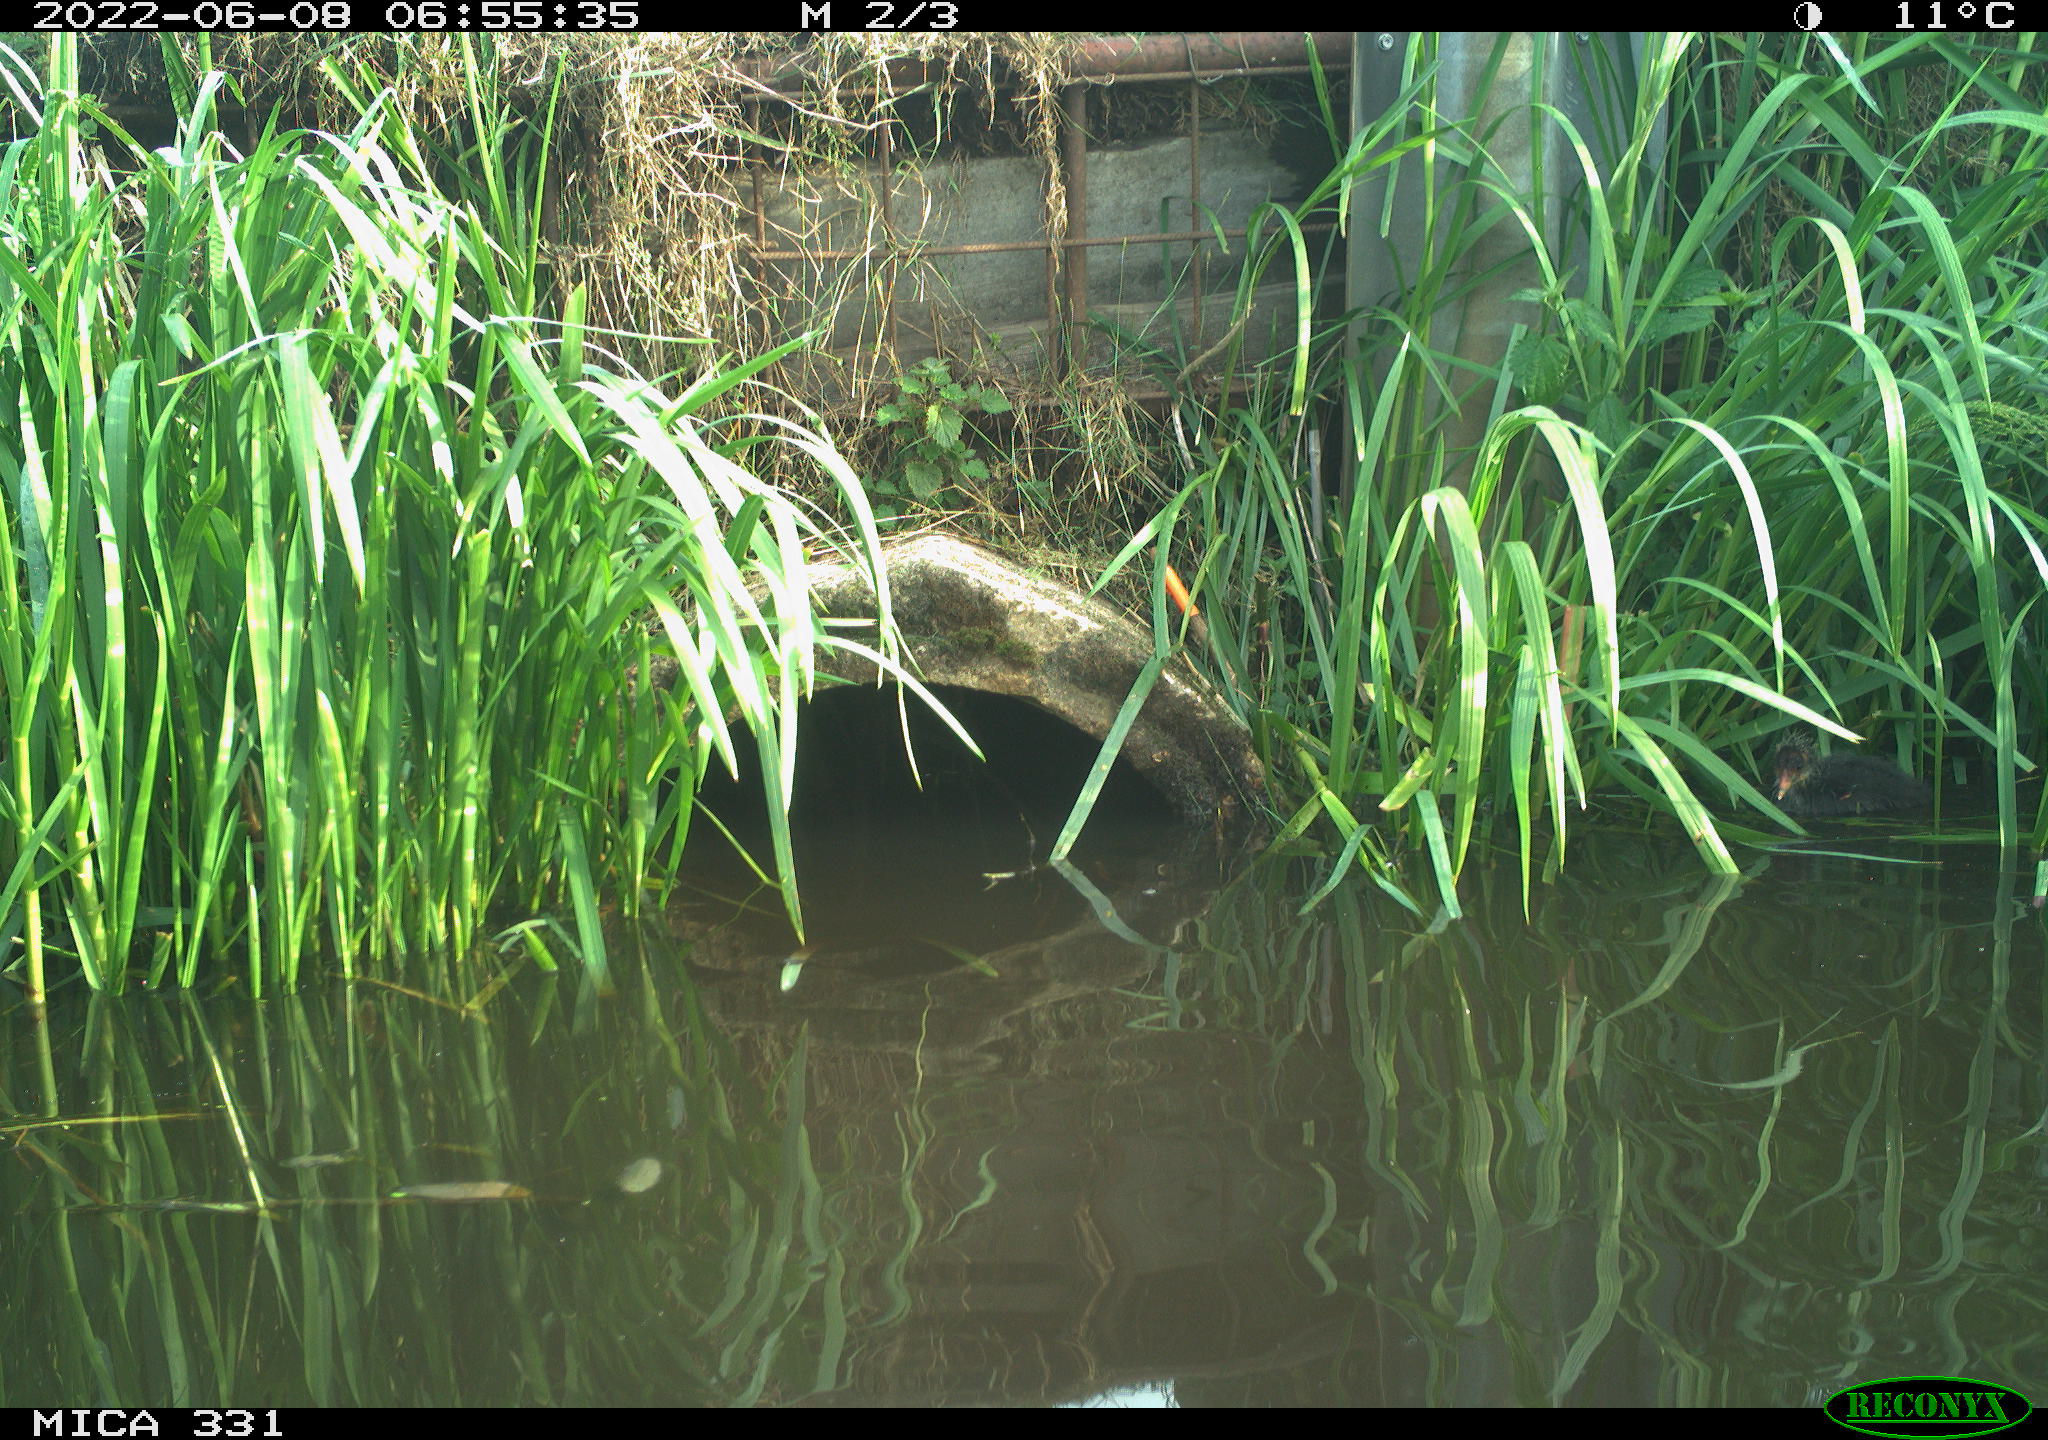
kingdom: Animalia
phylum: Chordata
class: Aves
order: Gruiformes
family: Rallidae
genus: Gallinula
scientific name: Gallinula chloropus
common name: Common moorhen
